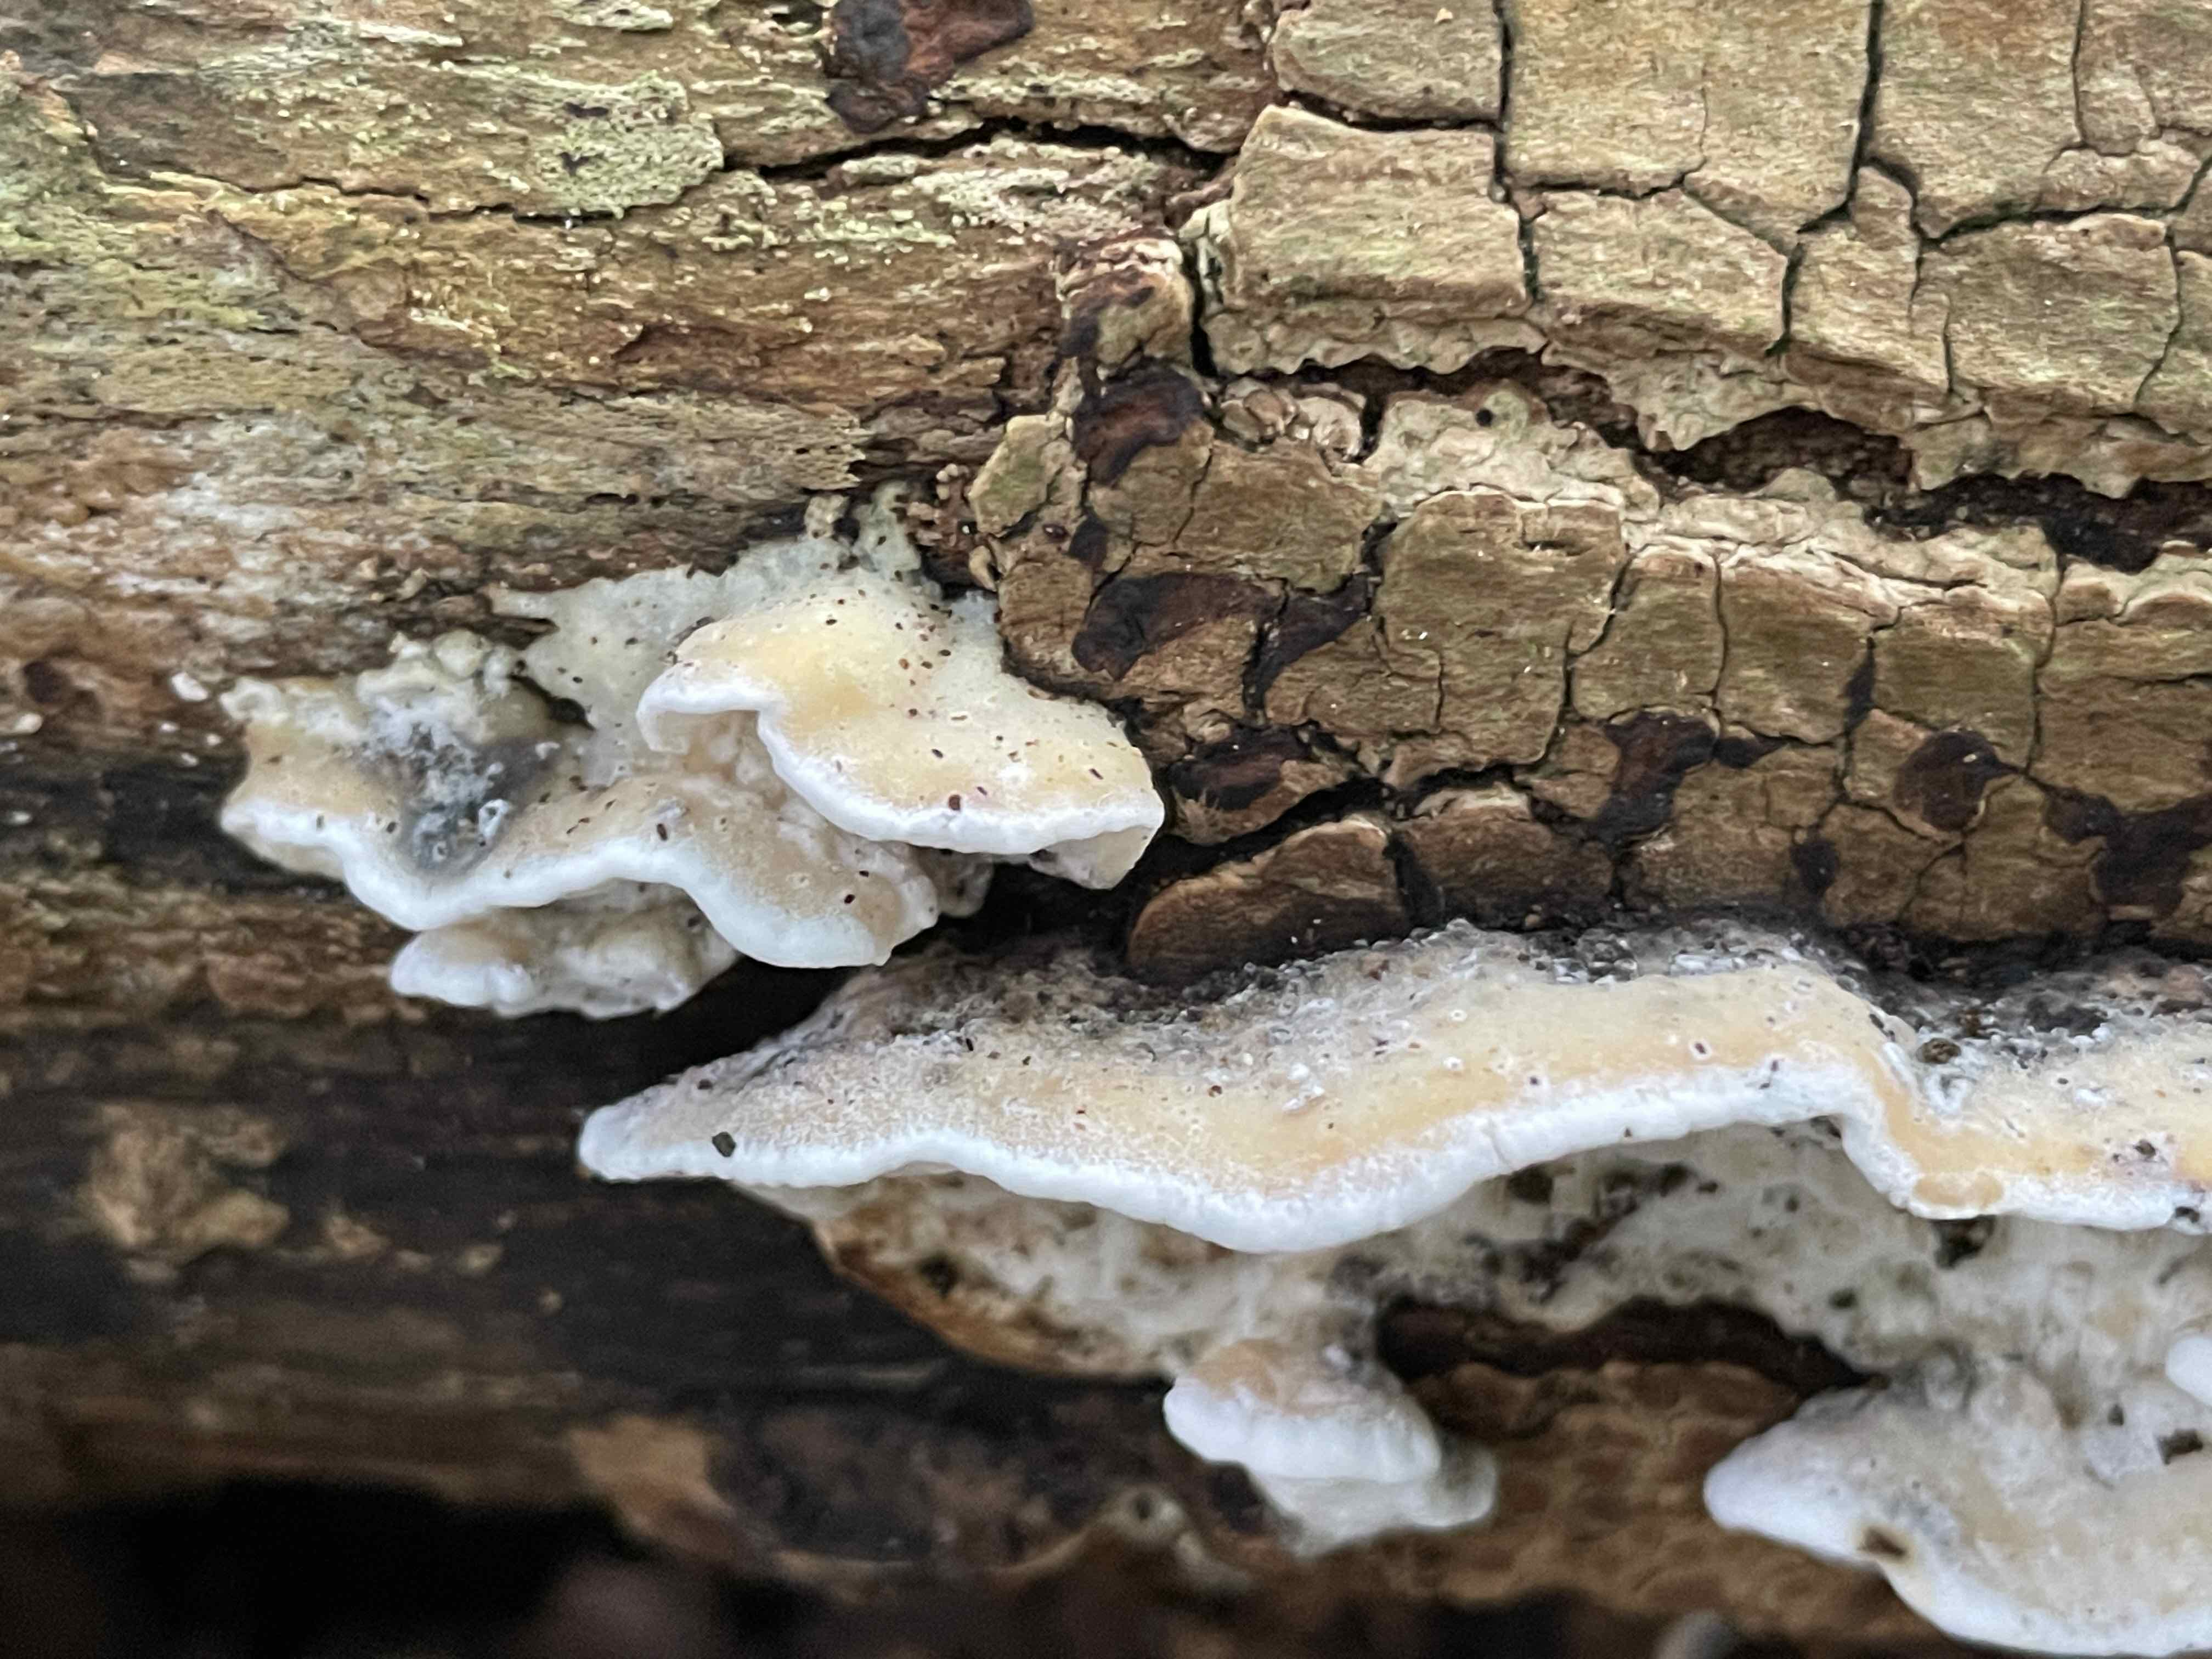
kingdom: Fungi
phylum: Basidiomycota
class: Agaricomycetes
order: Polyporales
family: Incrustoporiaceae
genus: Skeletocutis
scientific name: Skeletocutis nemoralis
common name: stor krystalporesvamp
